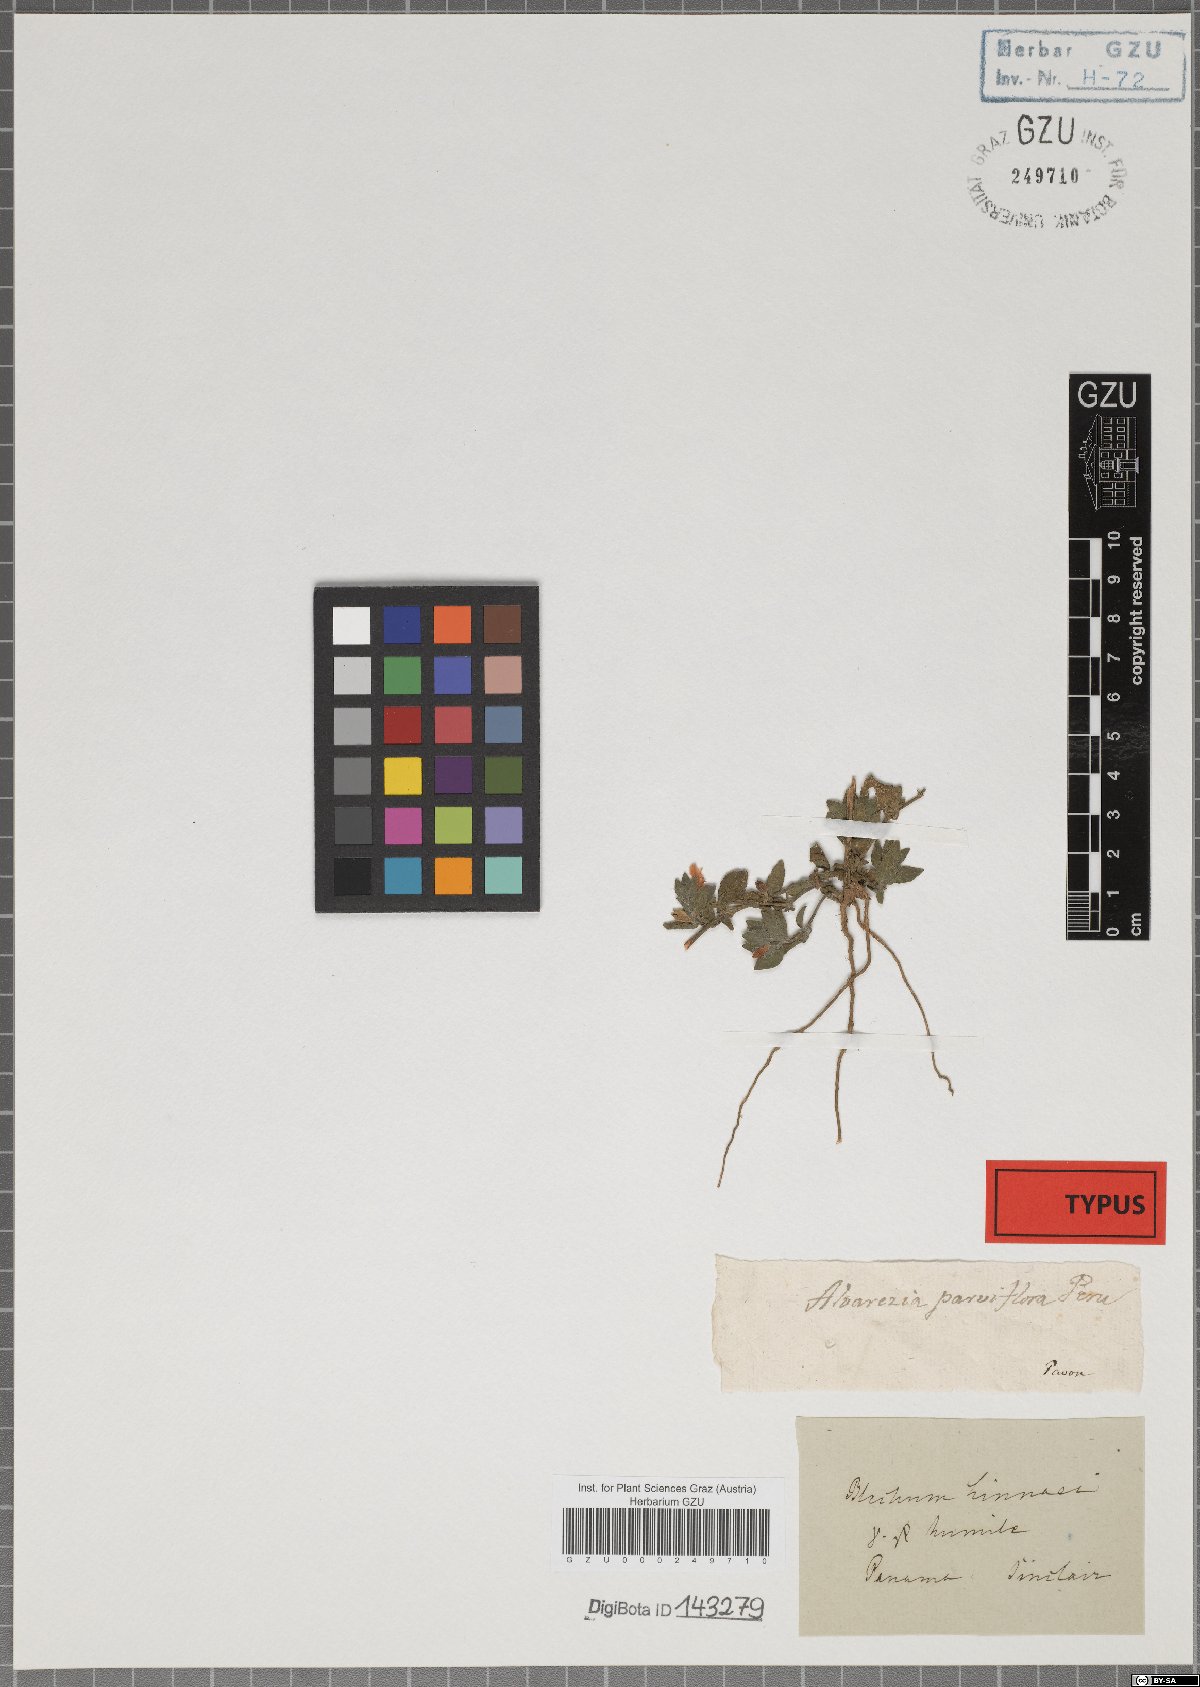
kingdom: Plantae
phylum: Tracheophyta
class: Magnoliopsida
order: Lamiales
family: Acanthaceae
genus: Ruellia
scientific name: Ruellia blechum
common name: Browne's blechum
